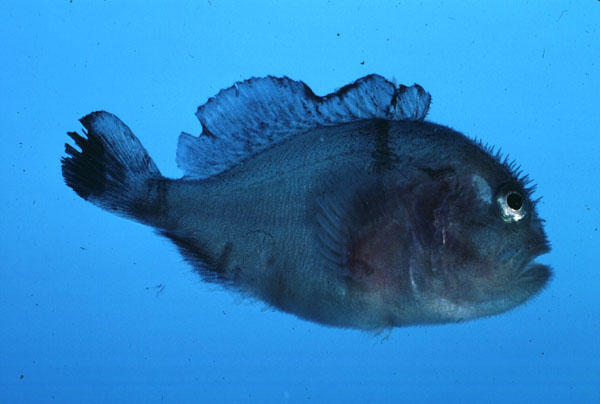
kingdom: Animalia
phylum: Chordata
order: Scorpaeniformes
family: Scorpaenidae
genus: Caracanthus
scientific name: Caracanthus unipinna
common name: Coral croucher
